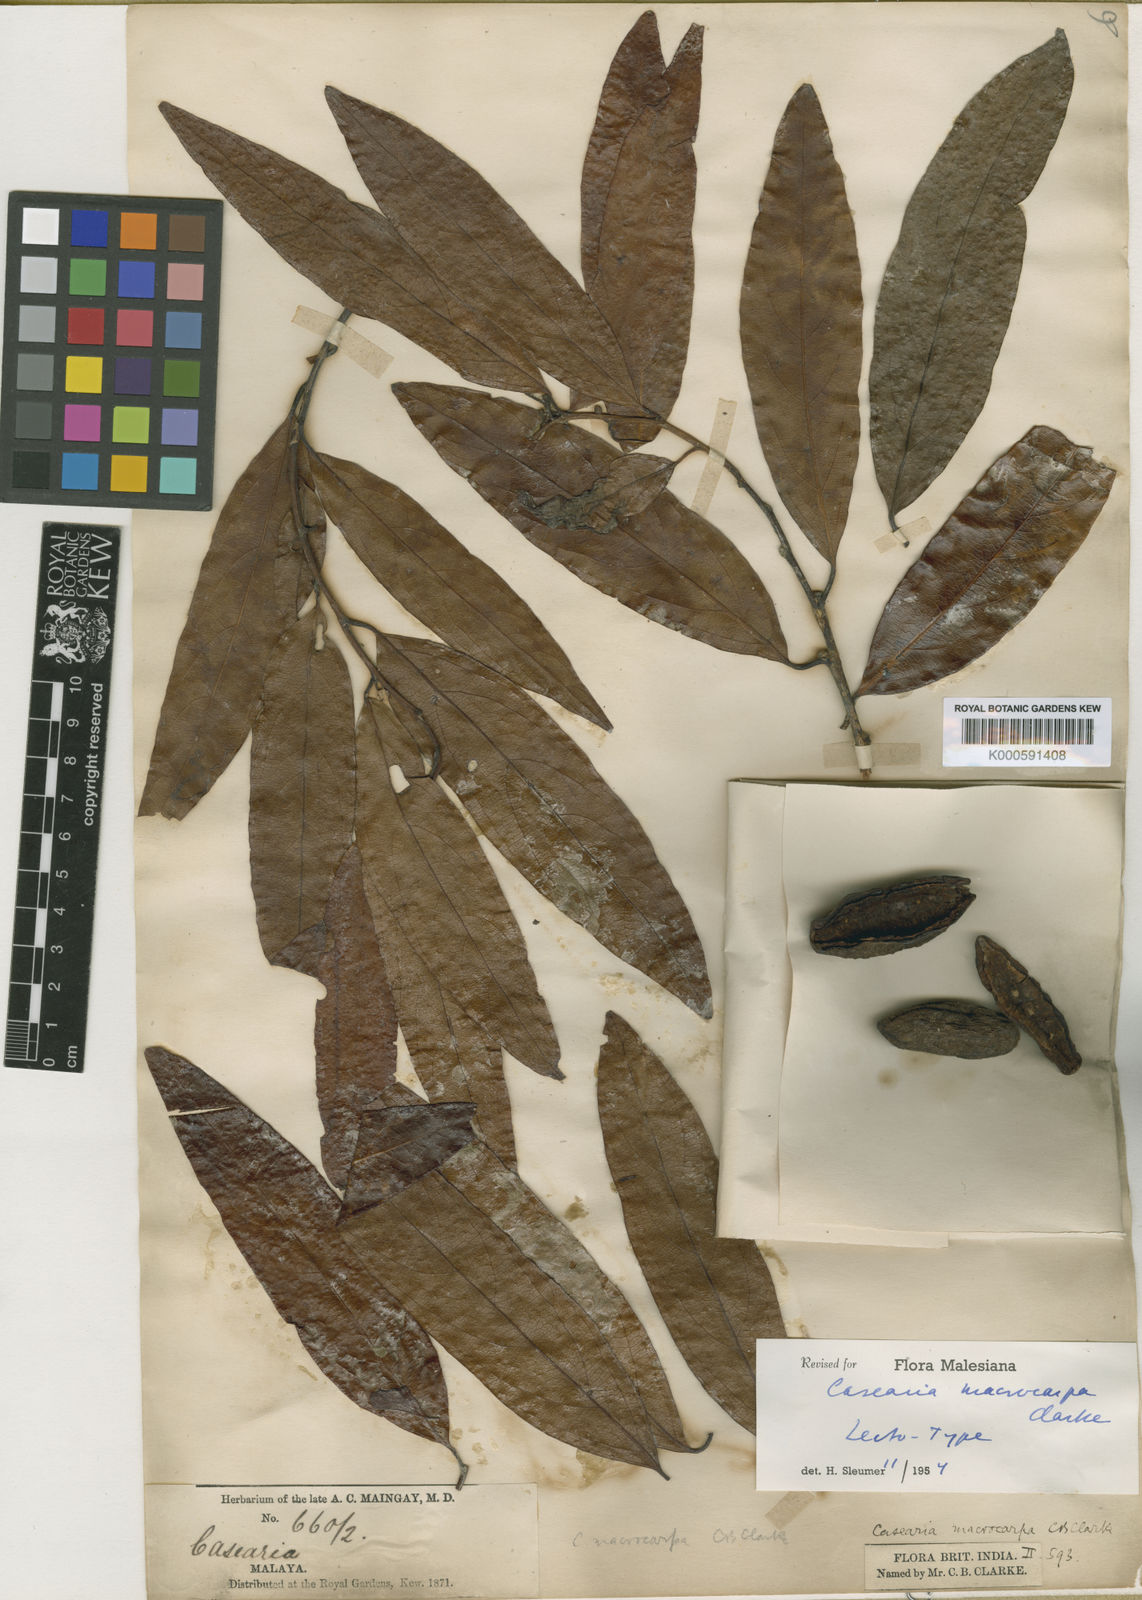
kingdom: Plantae
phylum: Tracheophyta
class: Magnoliopsida
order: Malpighiales
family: Salicaceae
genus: Casearia
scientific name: Casearia macrocarpa
